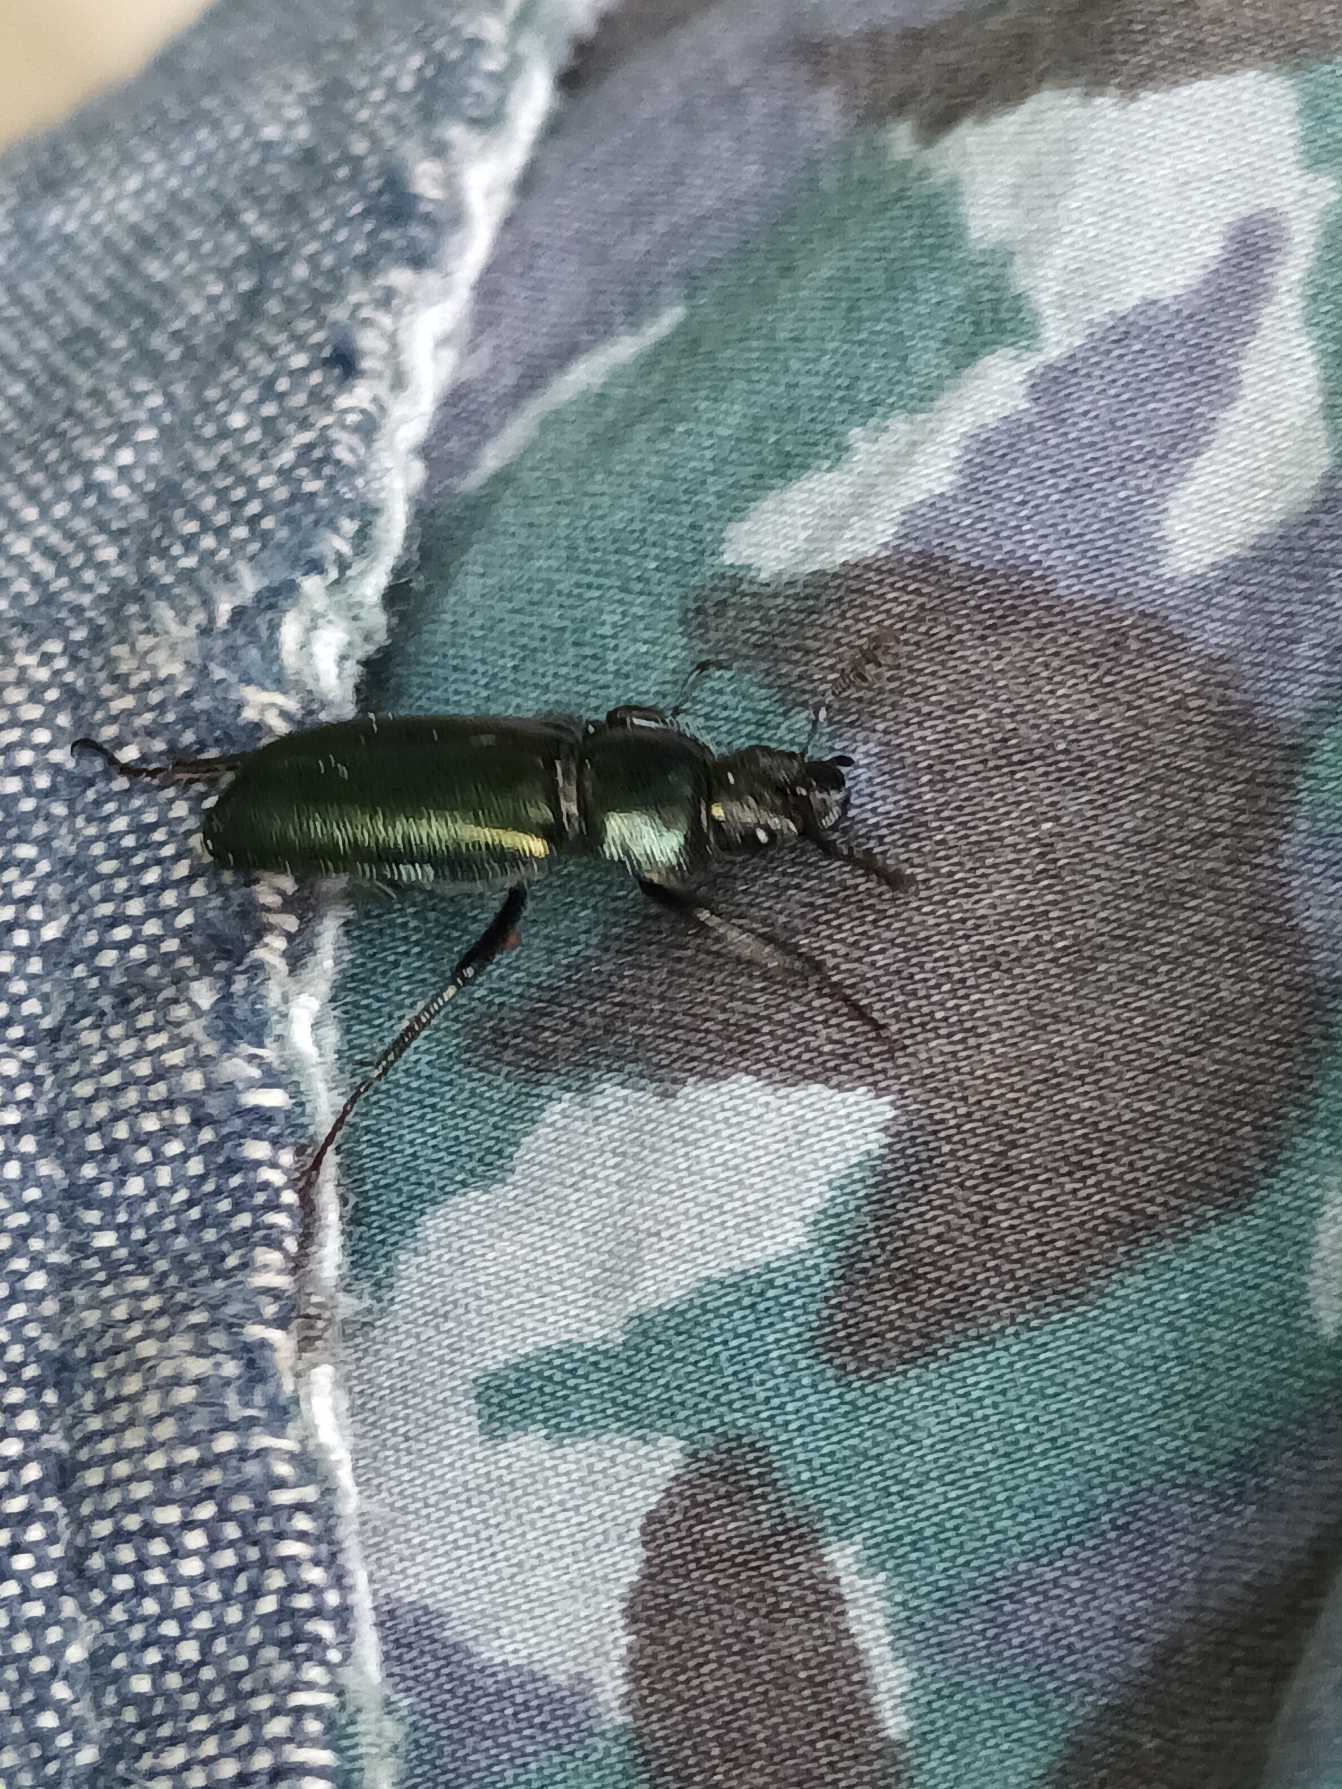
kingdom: Animalia
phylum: Arthropoda
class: Insecta
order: Coleoptera
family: Lucanidae
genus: Platycerus
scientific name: Platycerus caraboides
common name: Blåhjort
